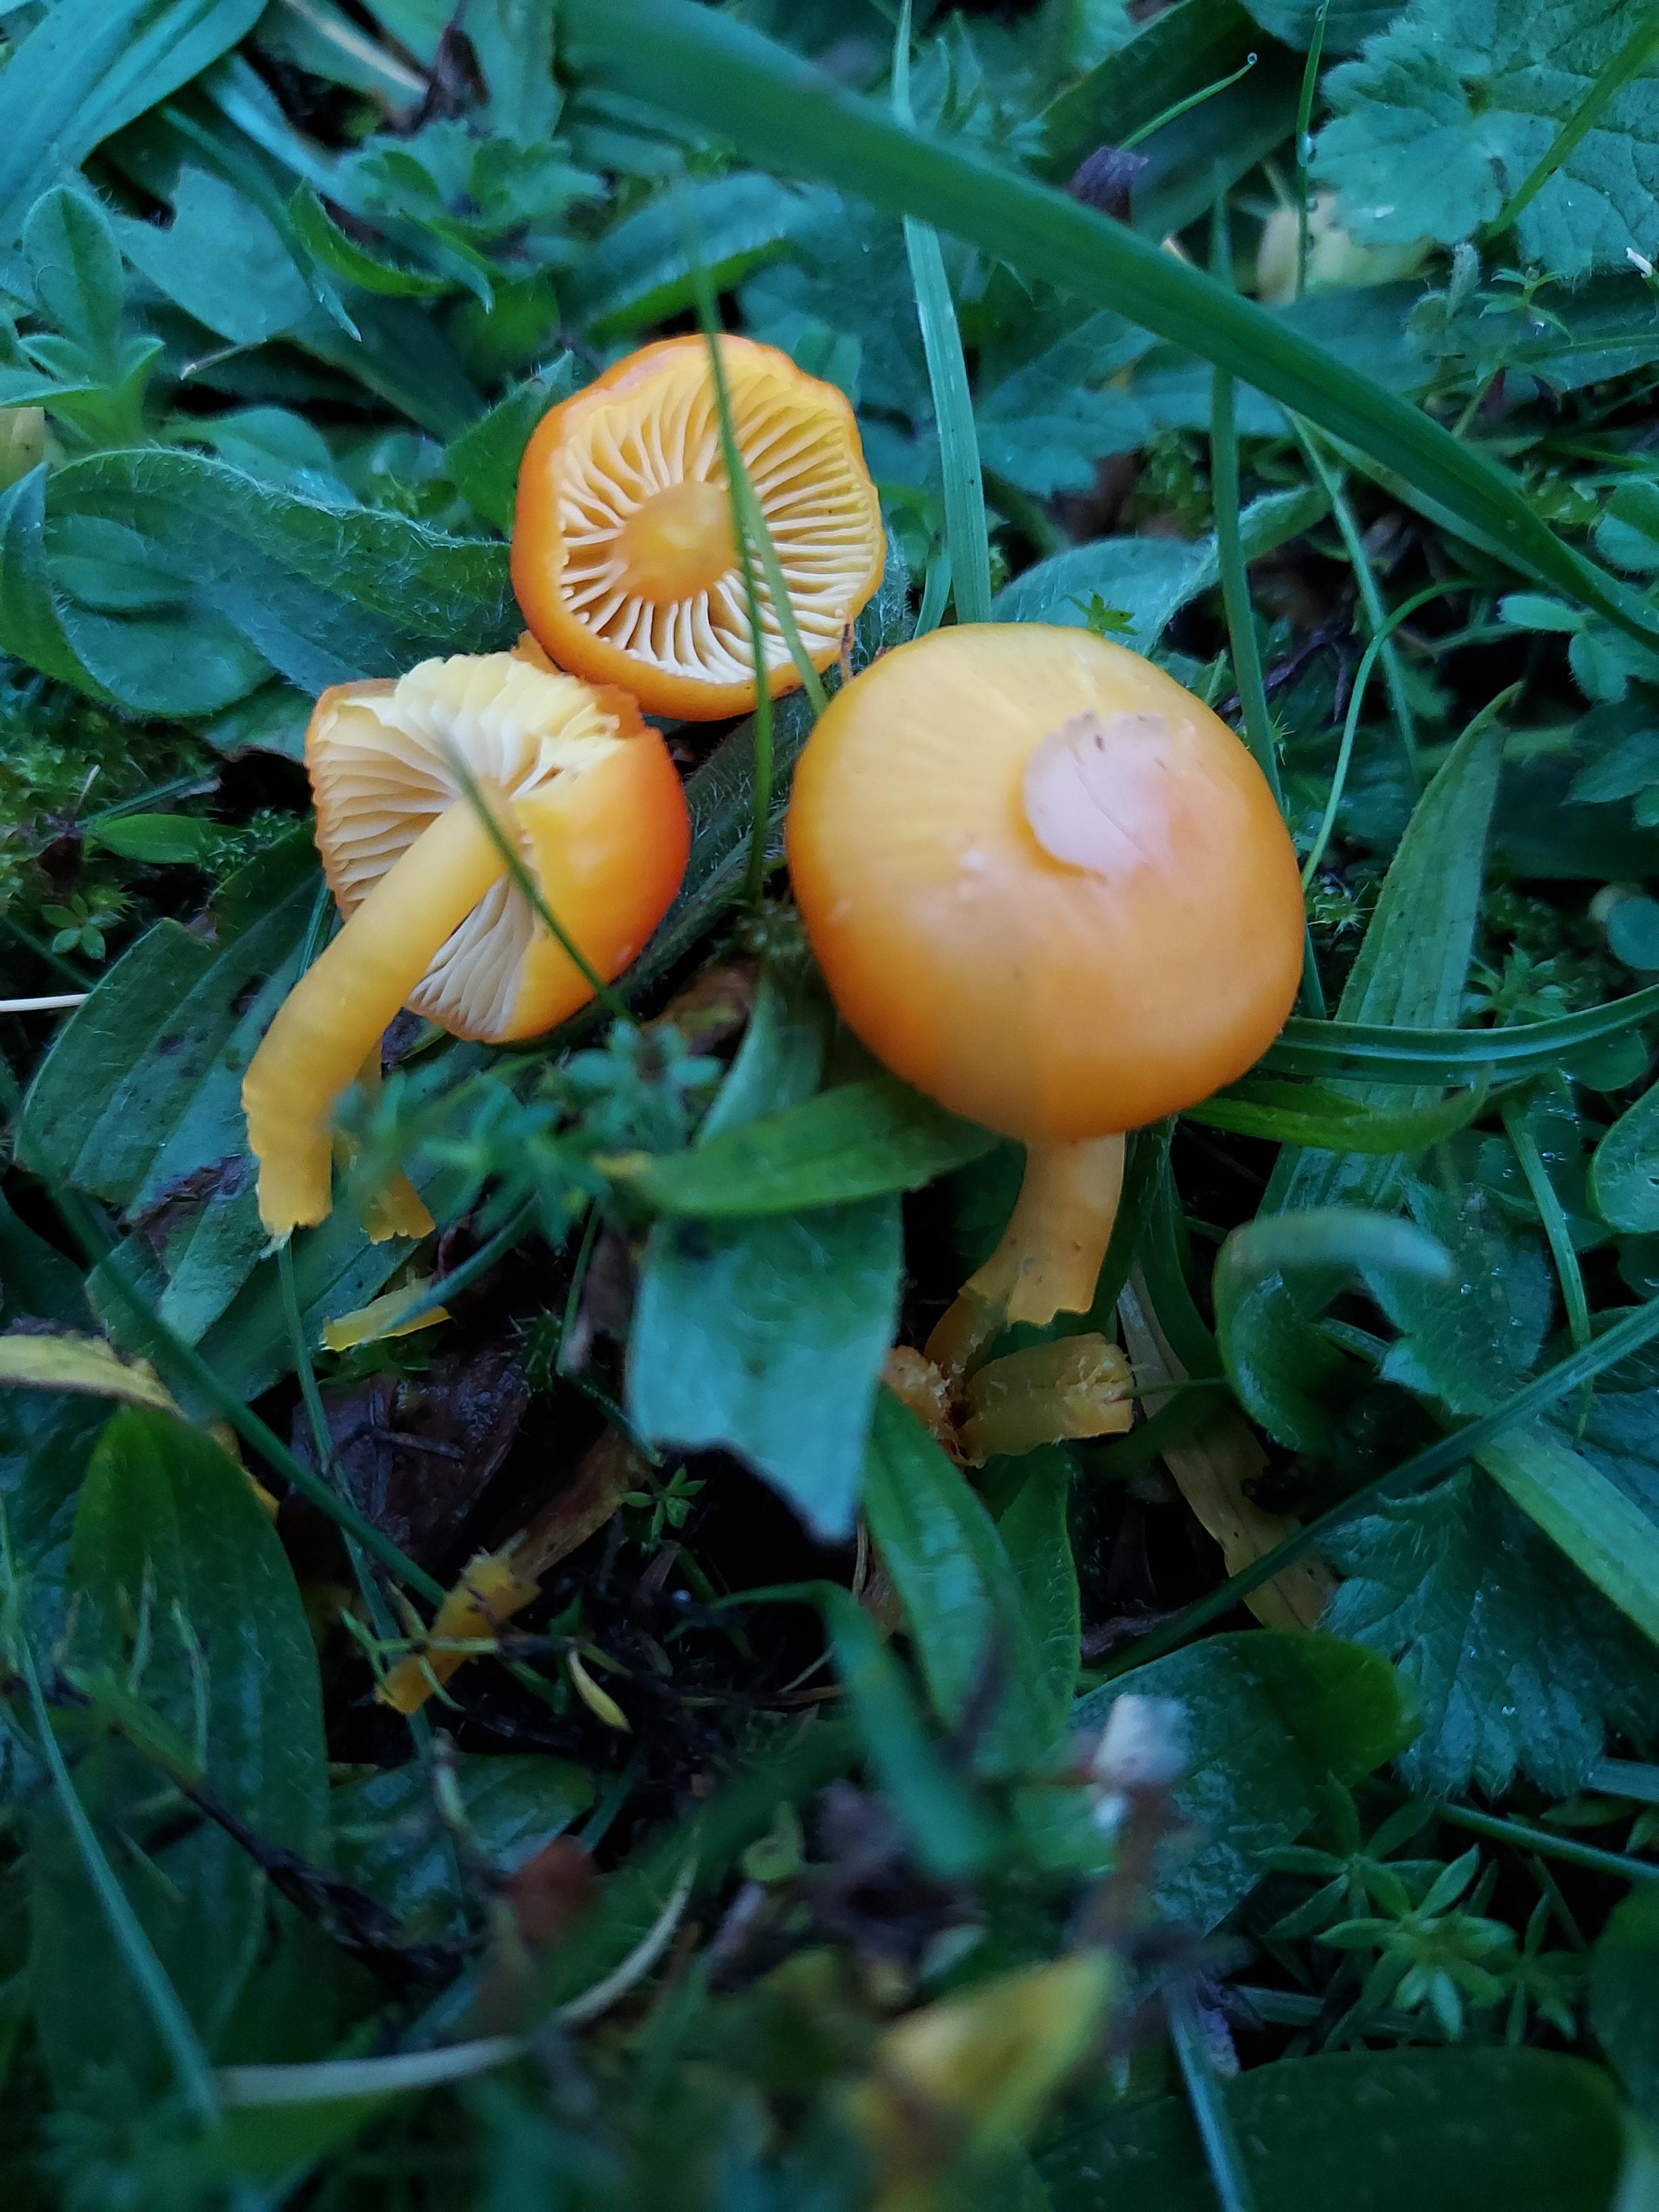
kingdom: Fungi
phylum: Basidiomycota
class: Agaricomycetes
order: Agaricales
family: Hygrophoraceae
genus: Hygrocybe
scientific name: Hygrocybe reidii
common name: honning-vokshat
